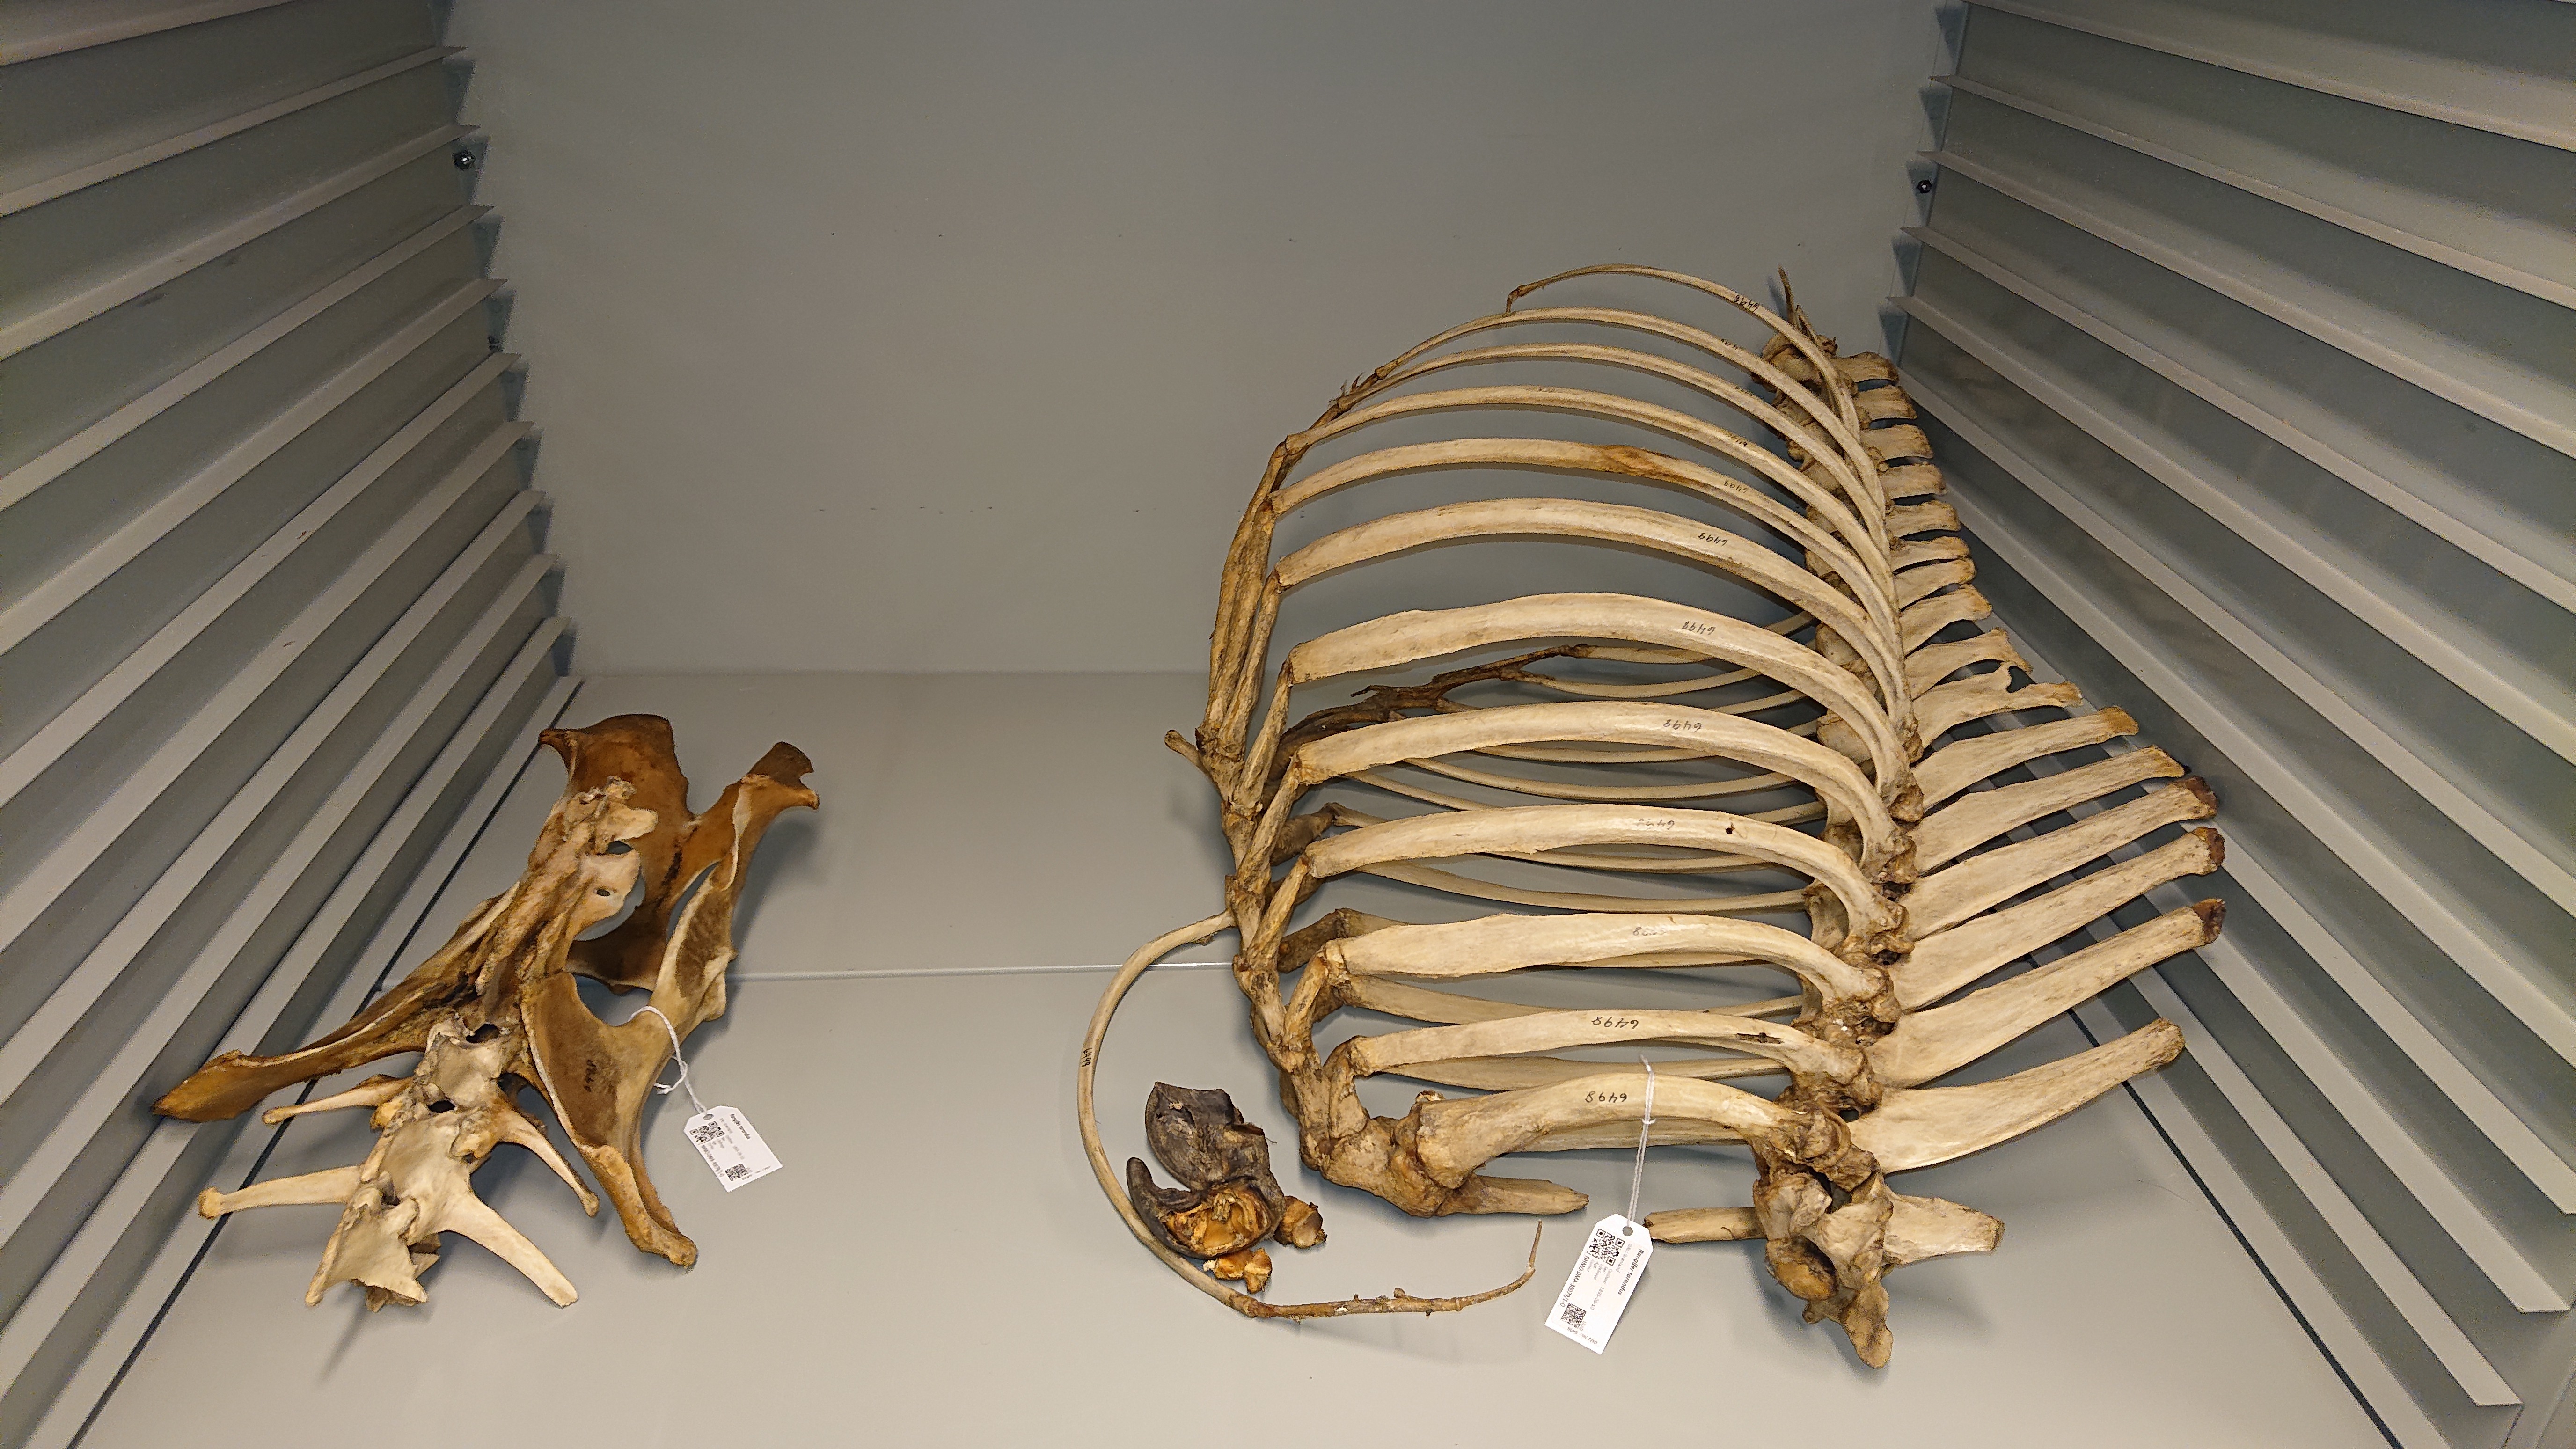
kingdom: Animalia
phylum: Chordata
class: Mammalia
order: Artiodactyla
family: Cervidae
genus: Rangifer
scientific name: Rangifer tarandus
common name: Reindeer
